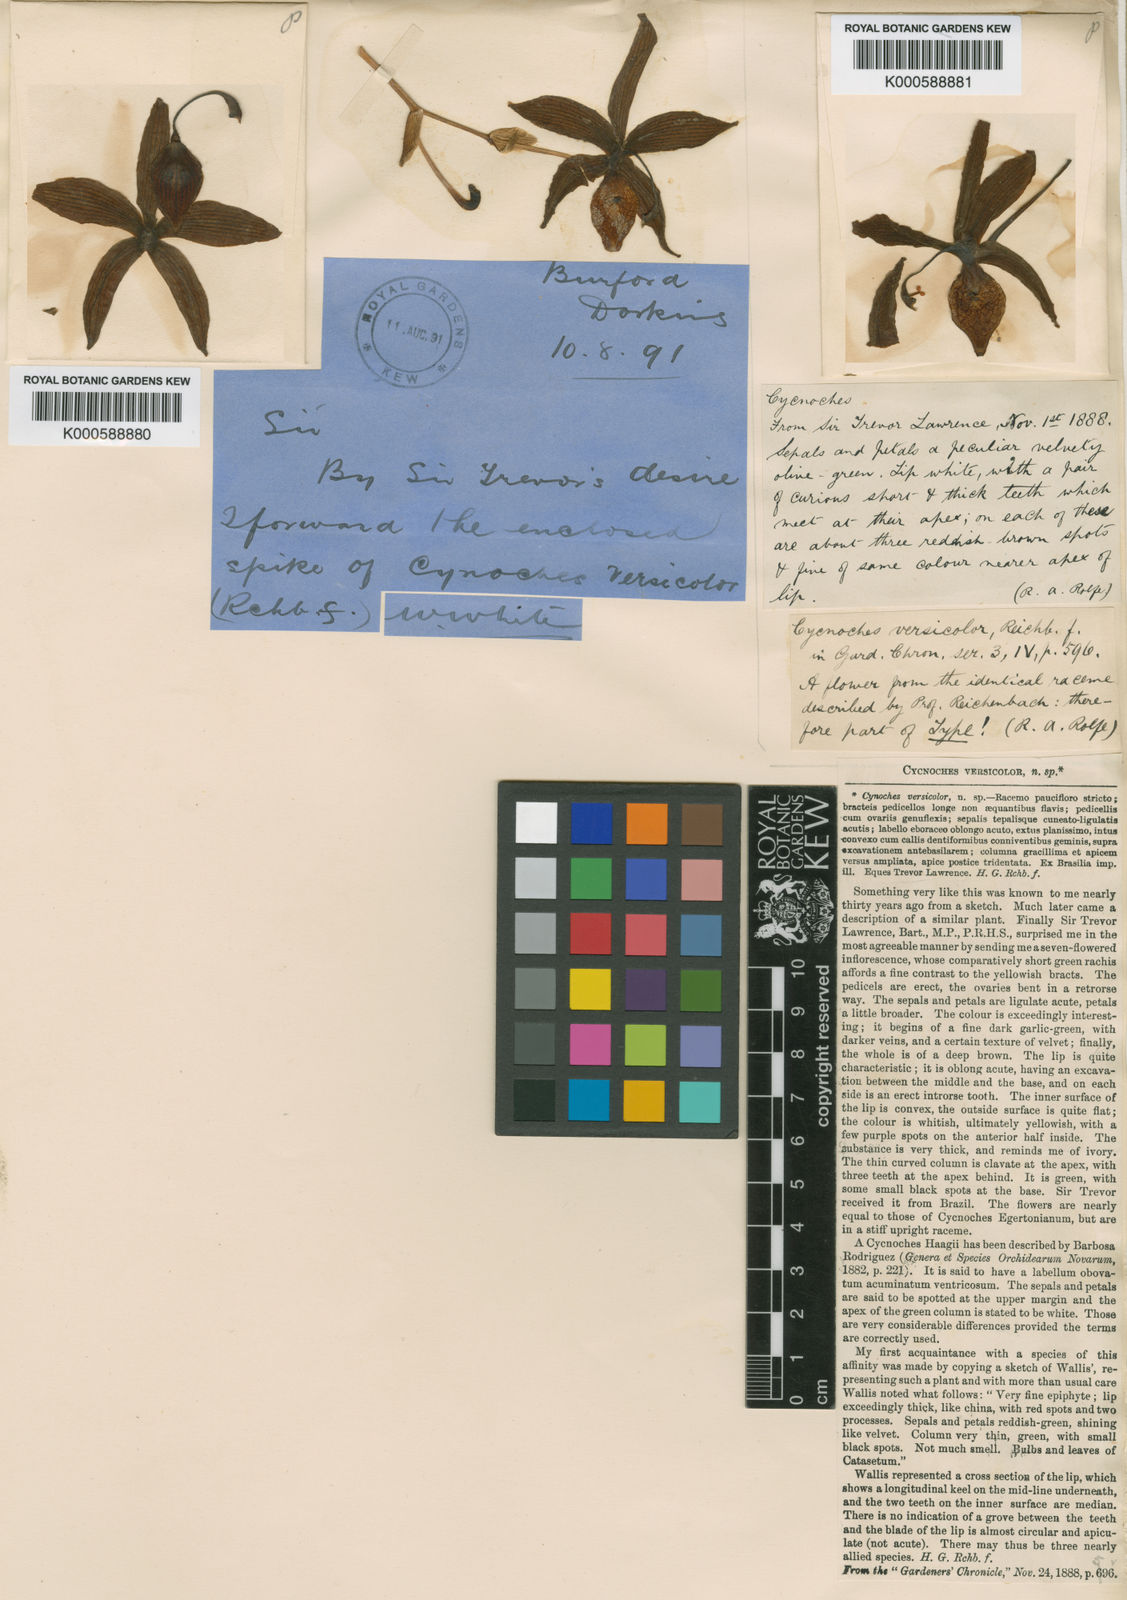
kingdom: Plantae
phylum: Tracheophyta
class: Liliopsida
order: Asparagales
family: Orchidaceae
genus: Cycnoches
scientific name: Cycnoches haagii
